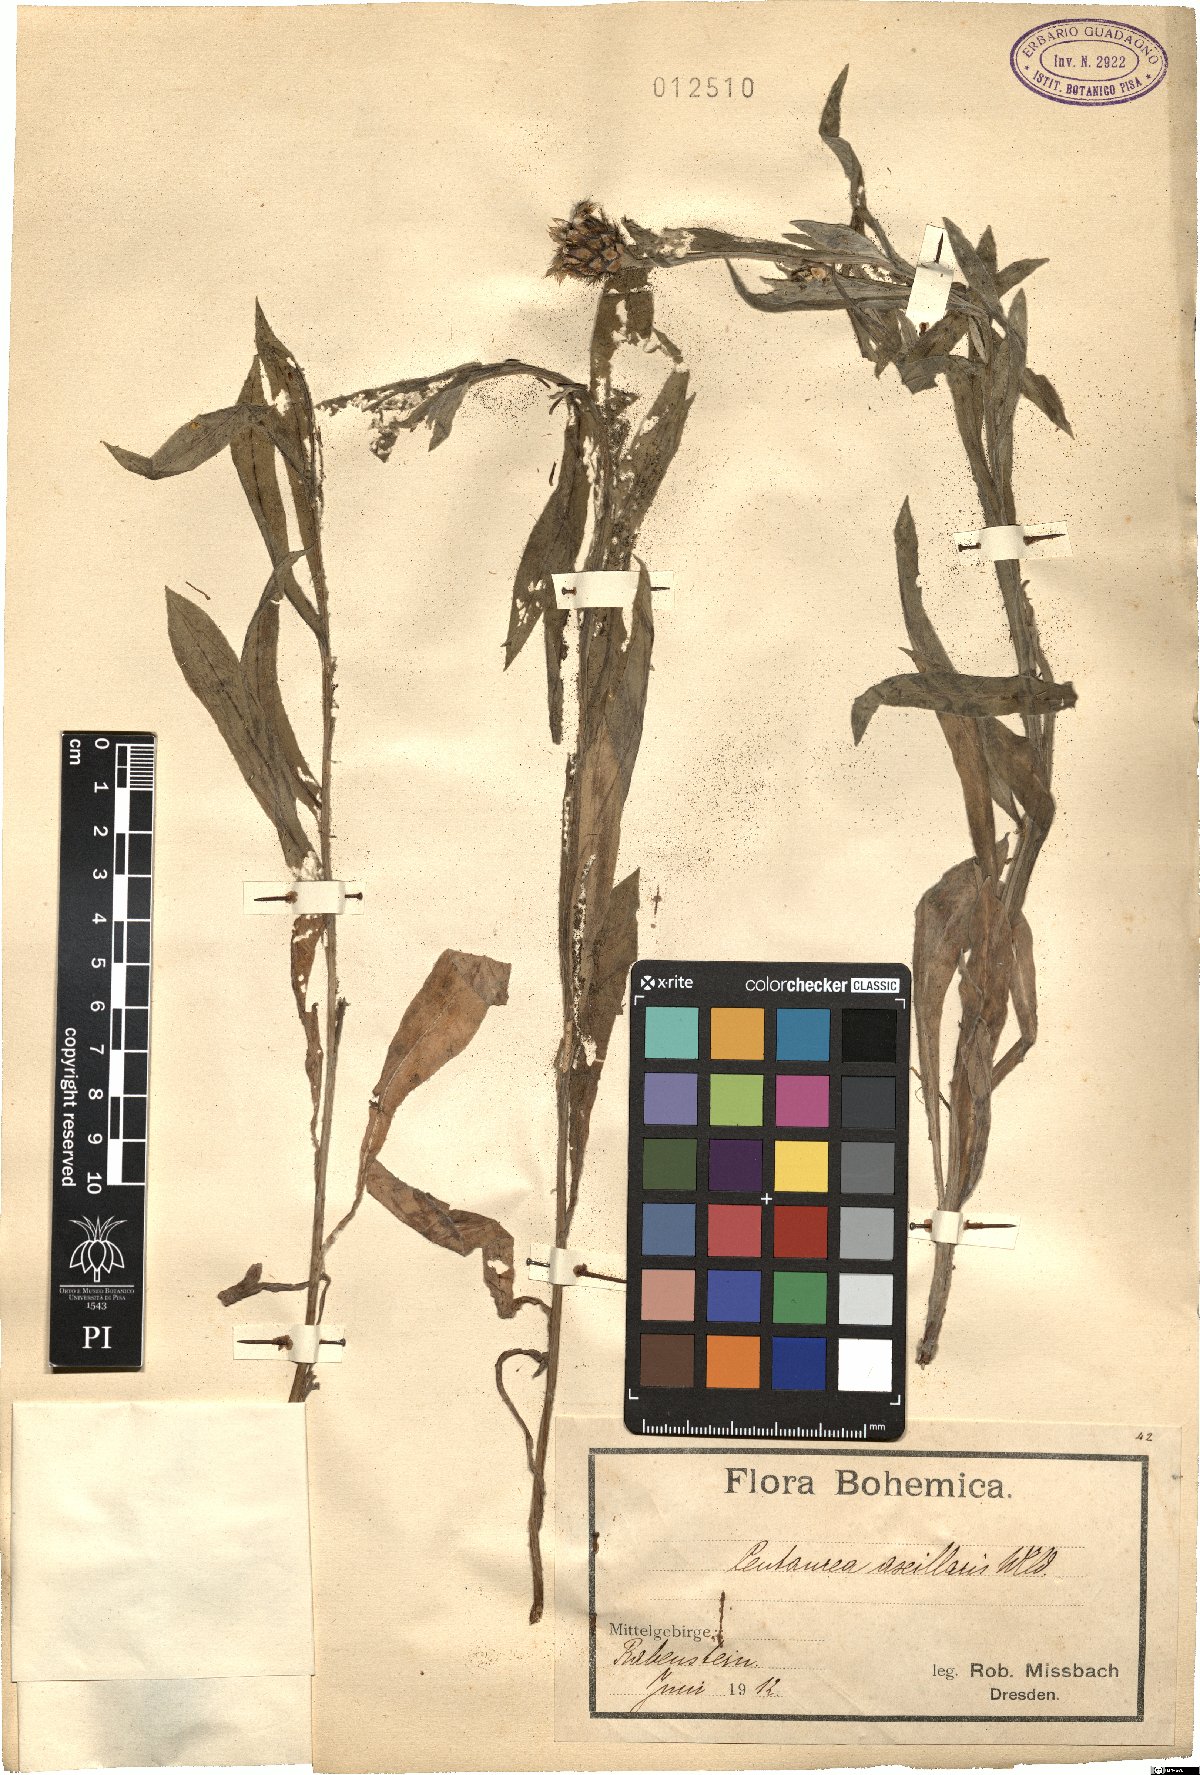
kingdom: Plantae
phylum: Tracheophyta
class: Magnoliopsida
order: Asterales
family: Asteraceae
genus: Centaurea
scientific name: Centaurea triumfettii
